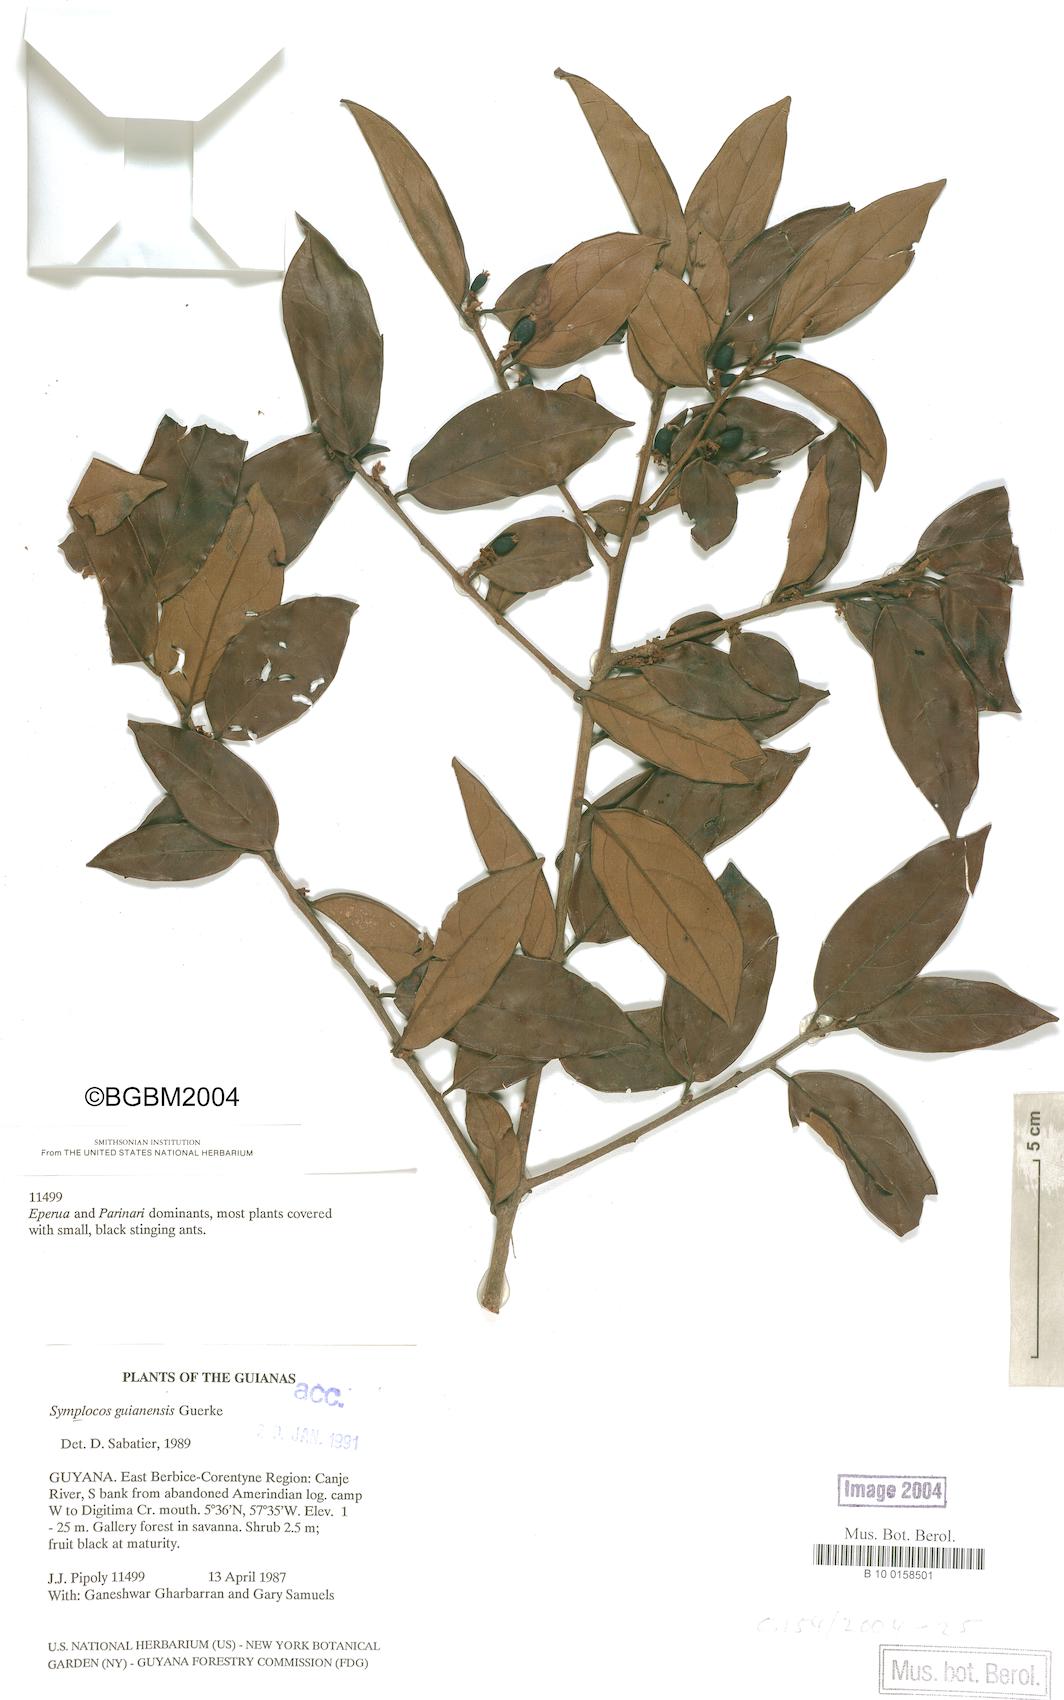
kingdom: Plantae
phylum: Tracheophyta
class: Magnoliopsida
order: Ericales
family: Symplocaceae
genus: Symplocos
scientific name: Symplocos guianensis
